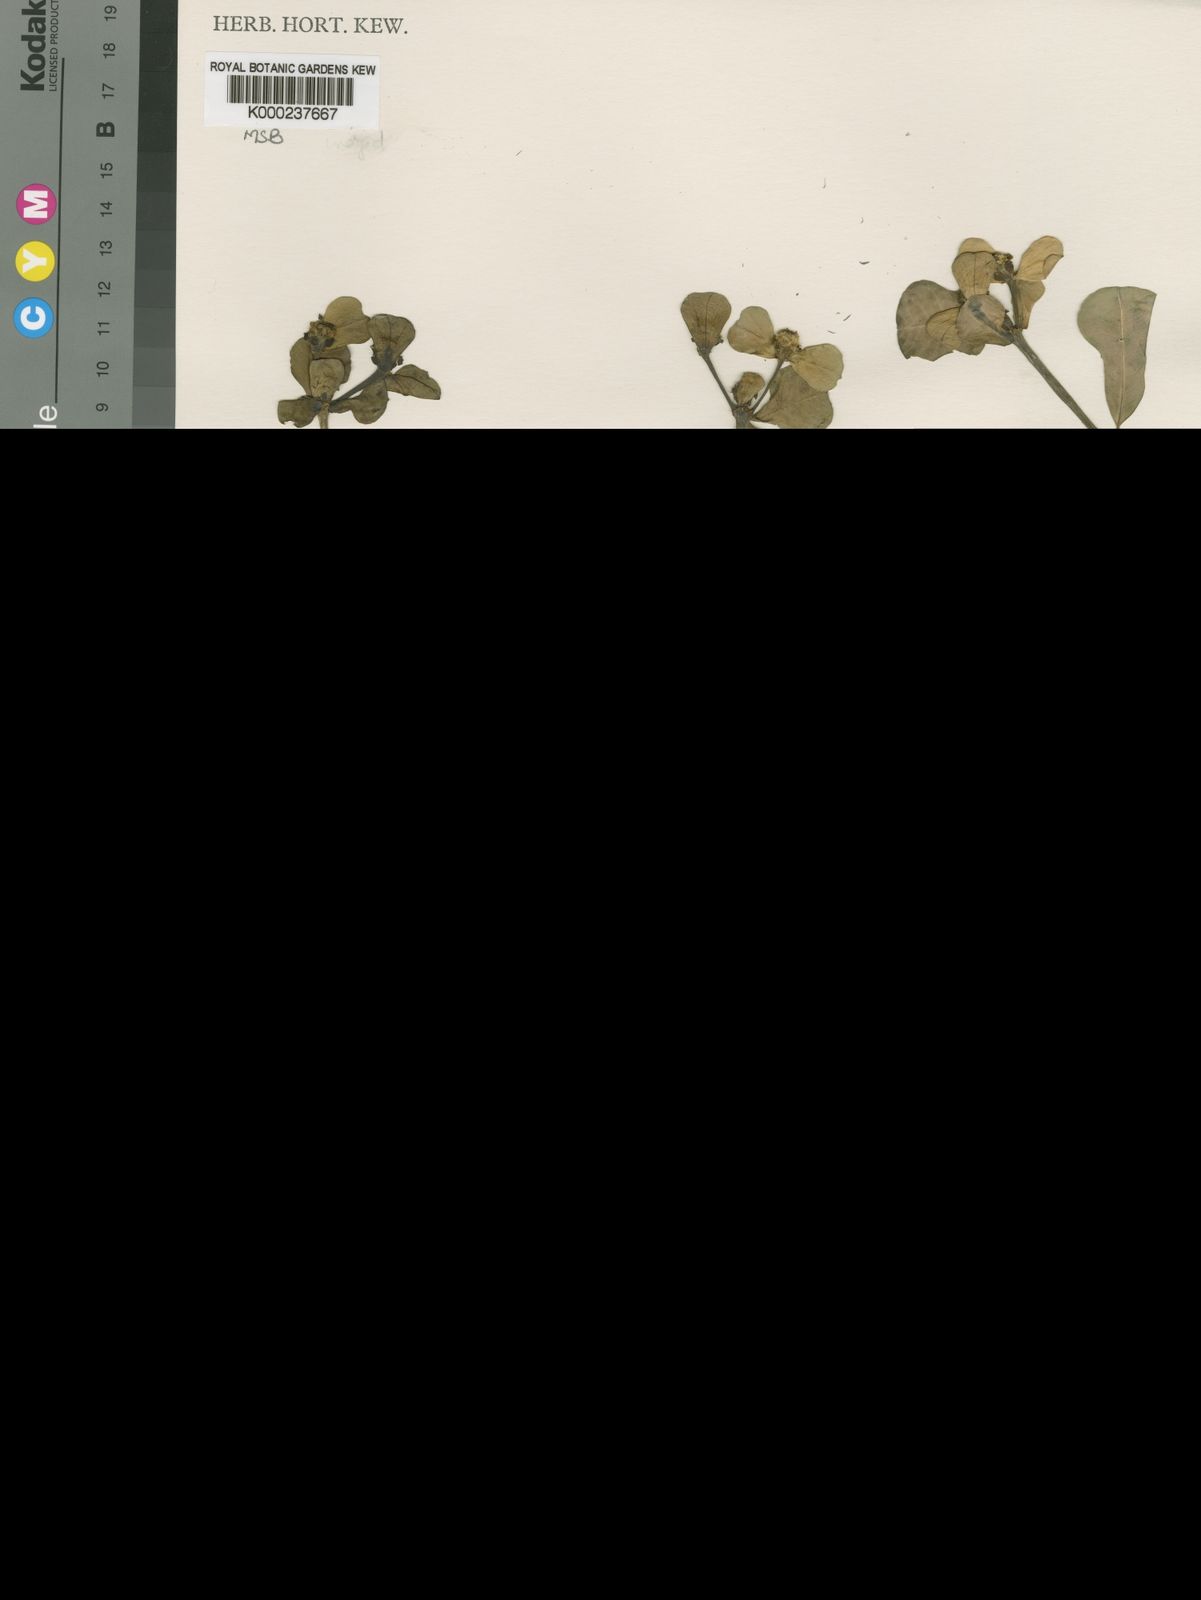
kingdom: Plantae
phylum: Tracheophyta
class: Magnoliopsida
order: Malpighiales
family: Euphorbiaceae
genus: Euphorbia
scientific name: Euphorbia joyae
